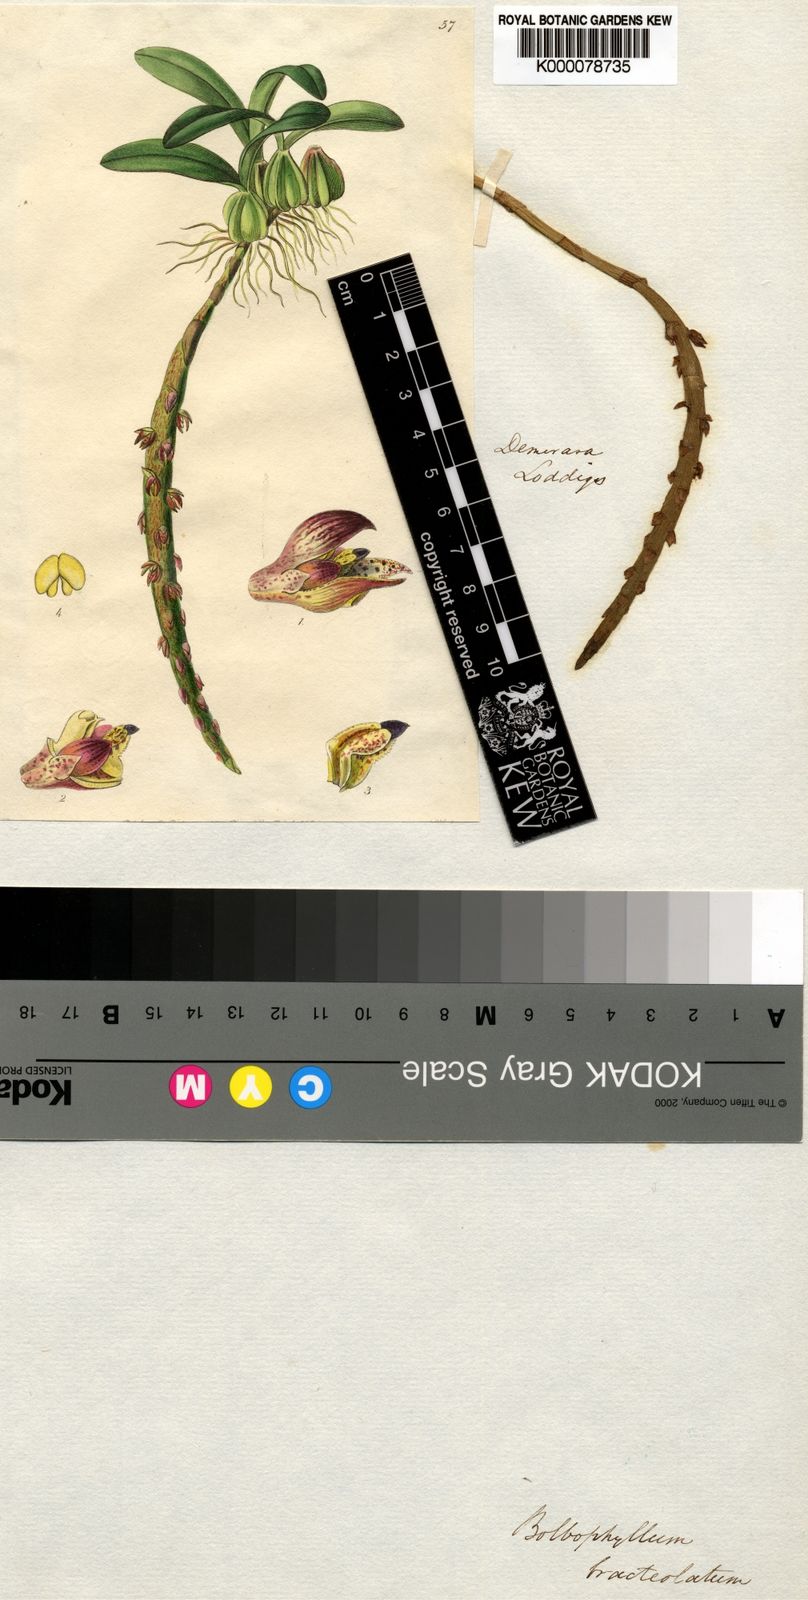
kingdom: Plantae
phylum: Tracheophyta
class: Liliopsida
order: Asparagales
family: Orchidaceae
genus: Bulbophyllum
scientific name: Bulbophyllum bracteolatum
